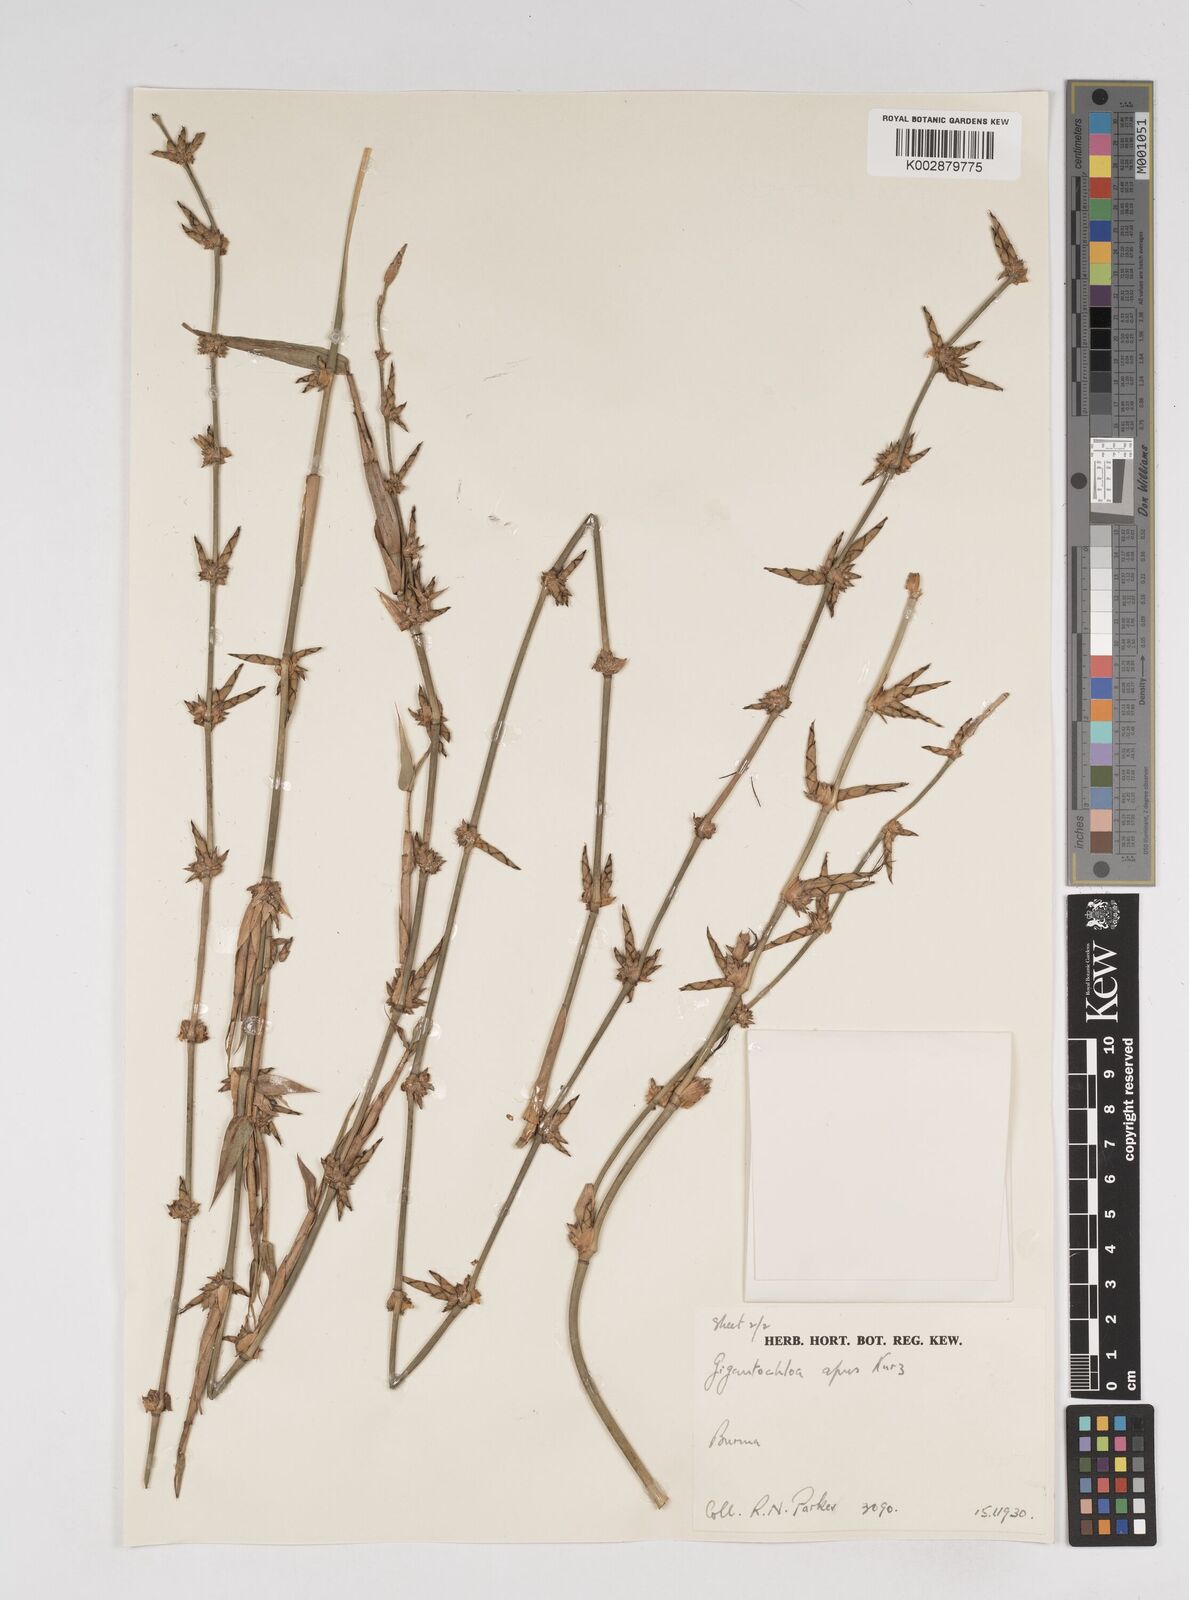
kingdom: Plantae
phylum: Tracheophyta
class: Liliopsida
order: Poales
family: Poaceae
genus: Gigantochloa
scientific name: Gigantochloa compressa
